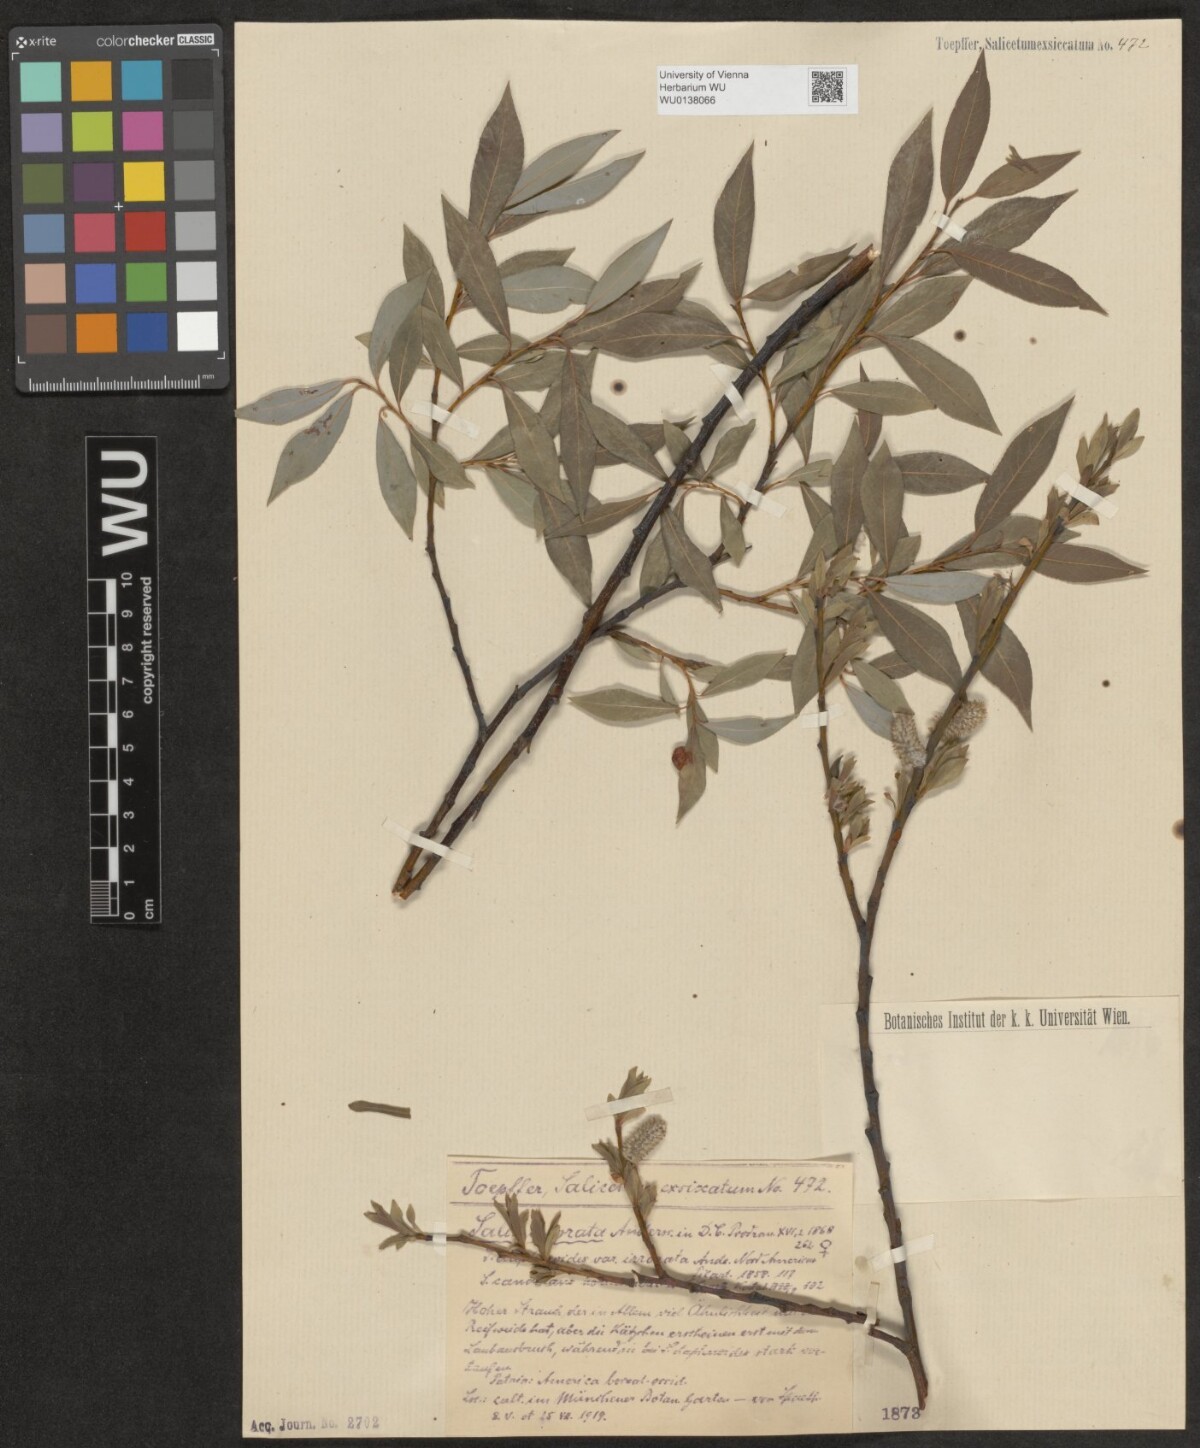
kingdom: Plantae
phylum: Tracheophyta
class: Magnoliopsida
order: Malpighiales
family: Salicaceae
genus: Salix
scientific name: Salix irrorata
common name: Blue-stem willow
